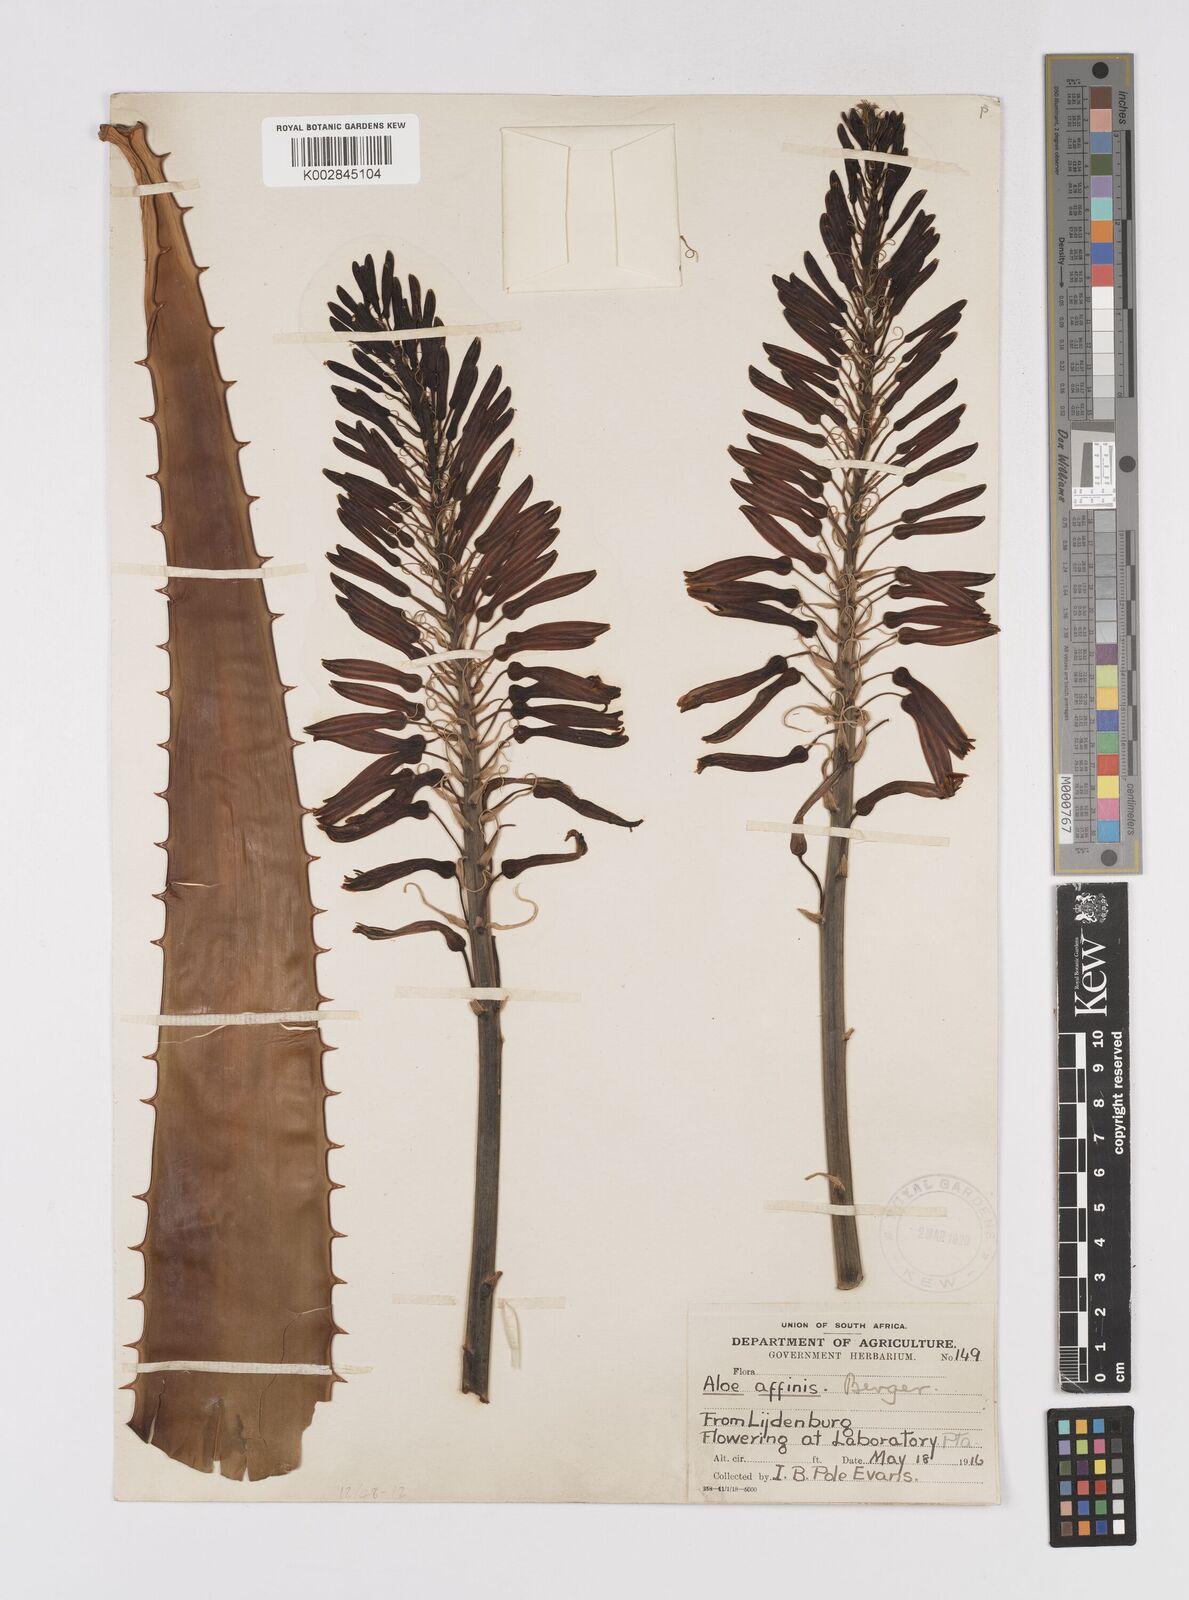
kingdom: Plantae
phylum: Tracheophyta
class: Liliopsida
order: Asparagales
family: Asphodelaceae
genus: Aloe
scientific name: Aloe affinis
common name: Spotted aloe
